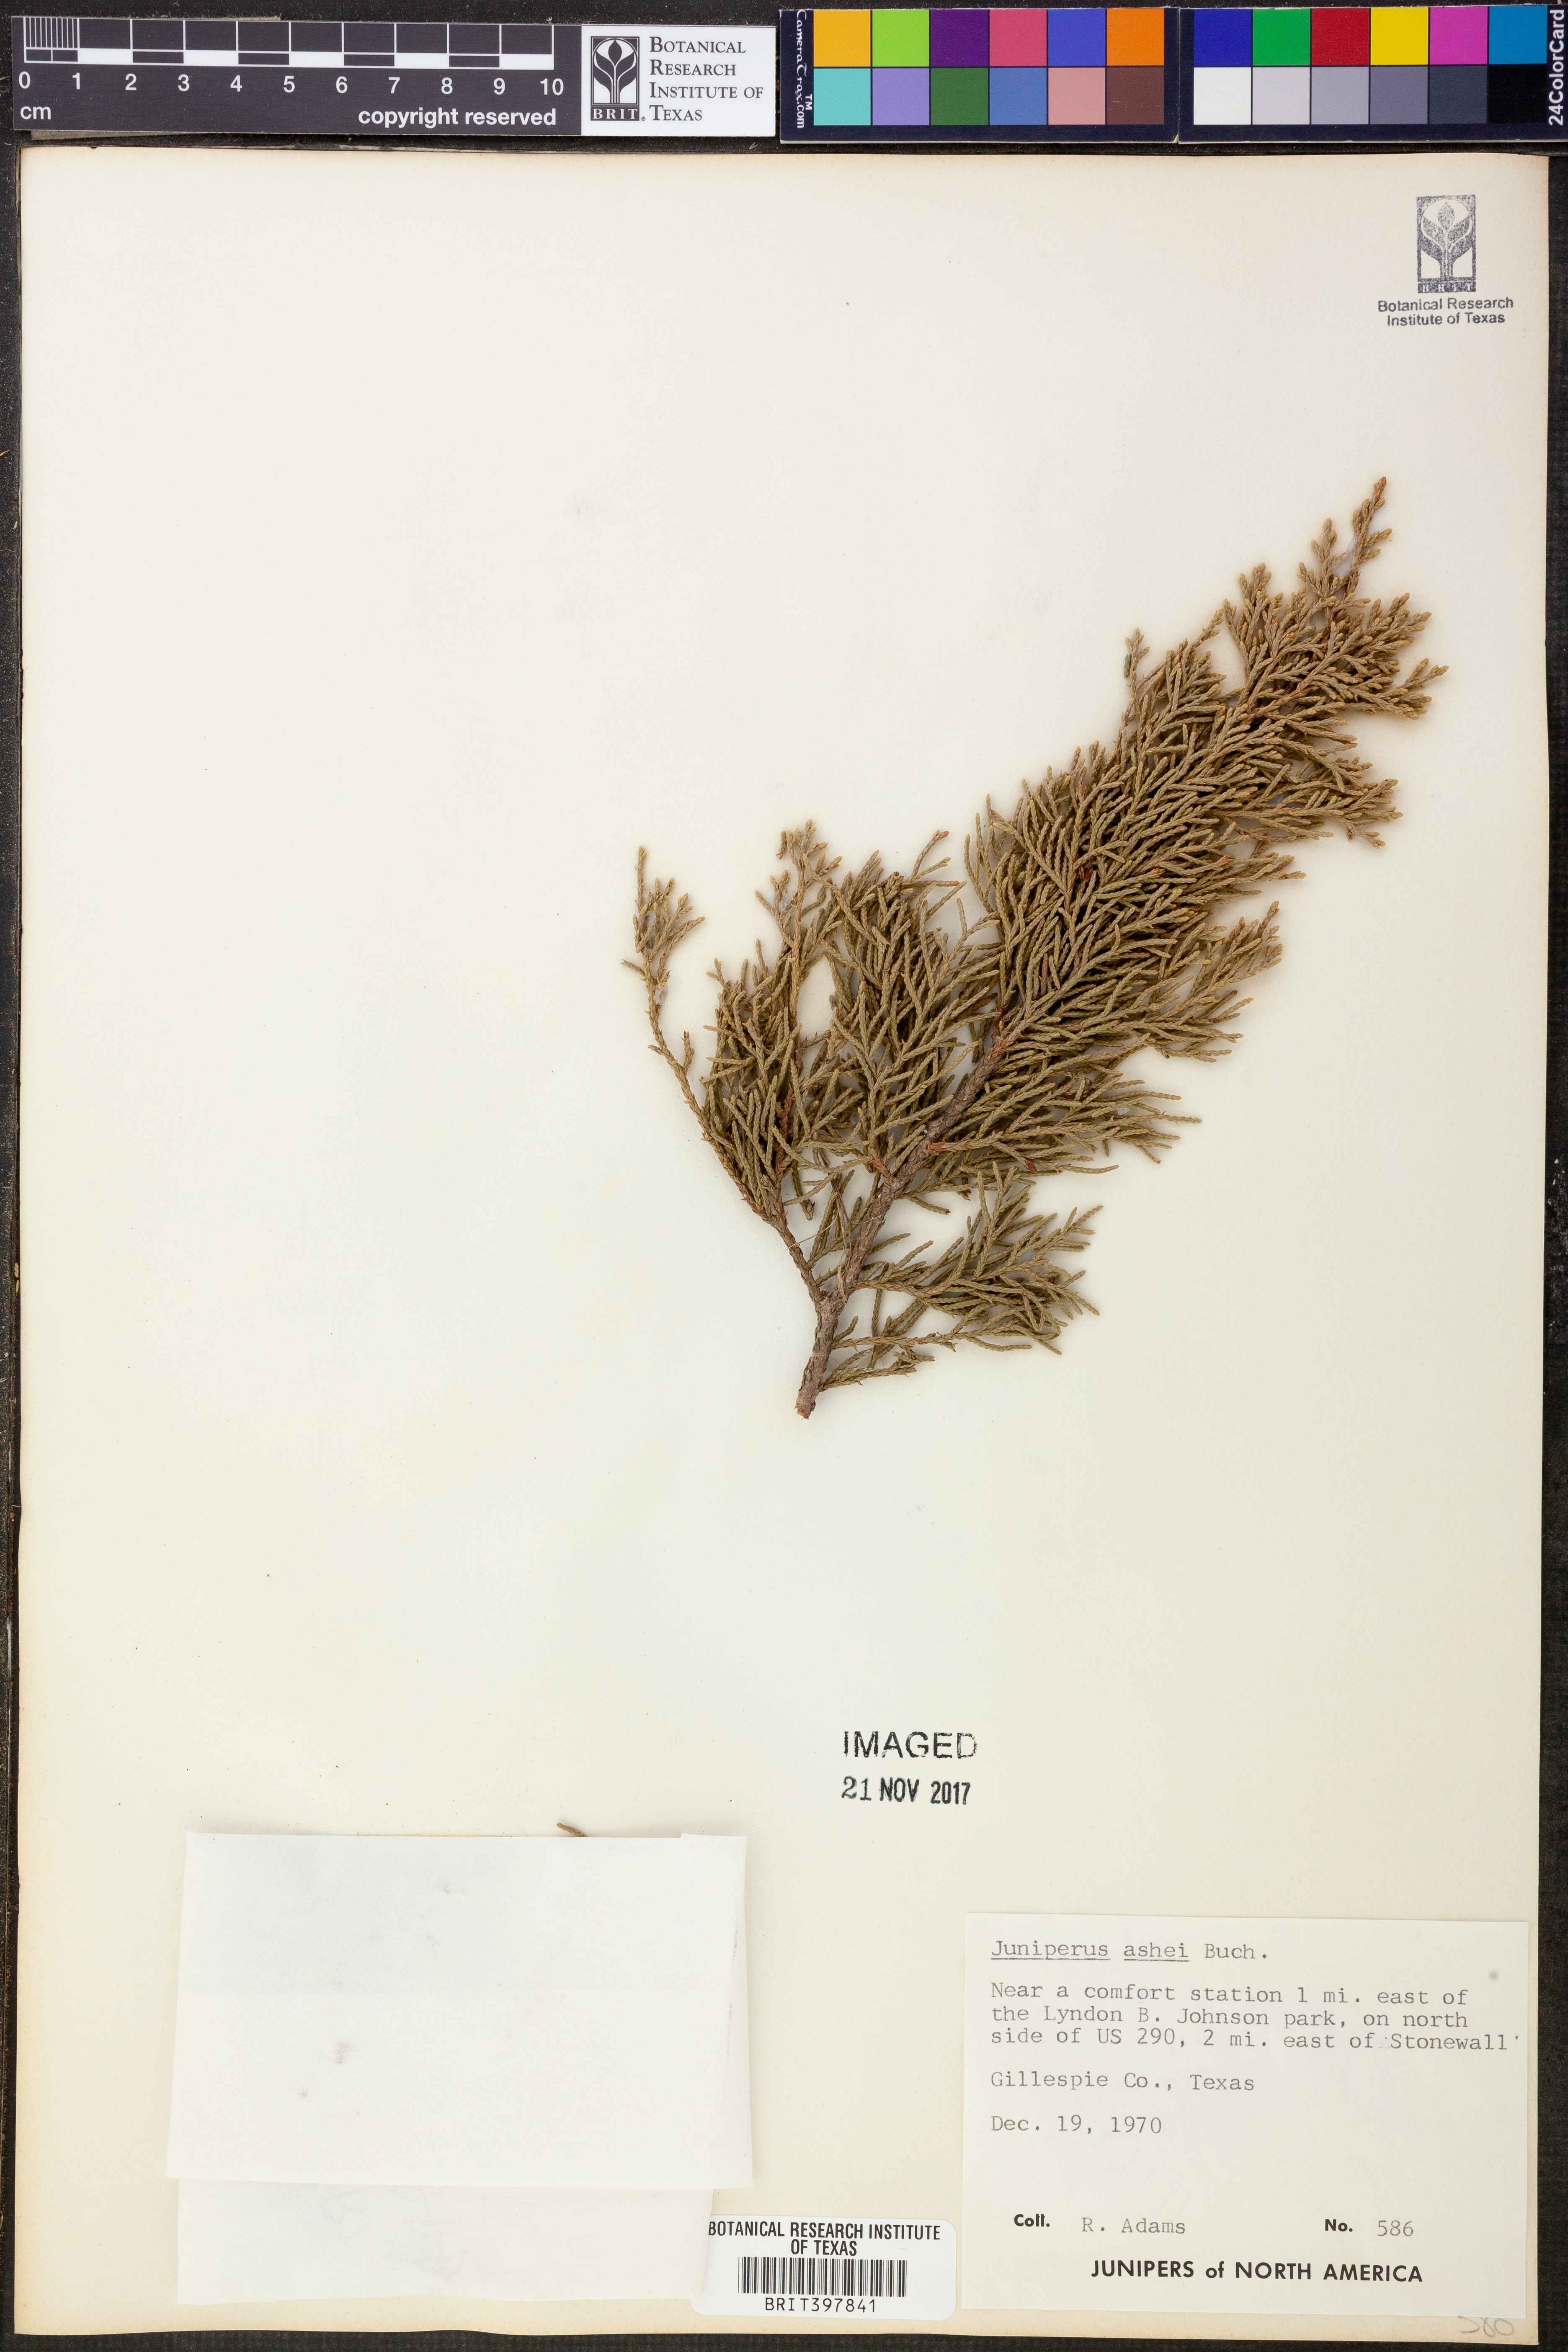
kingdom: Plantae
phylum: Tracheophyta
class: Pinopsida
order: Pinales
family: Cupressaceae
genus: Juniperus
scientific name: Juniperus ashei
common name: Mexican juniper
